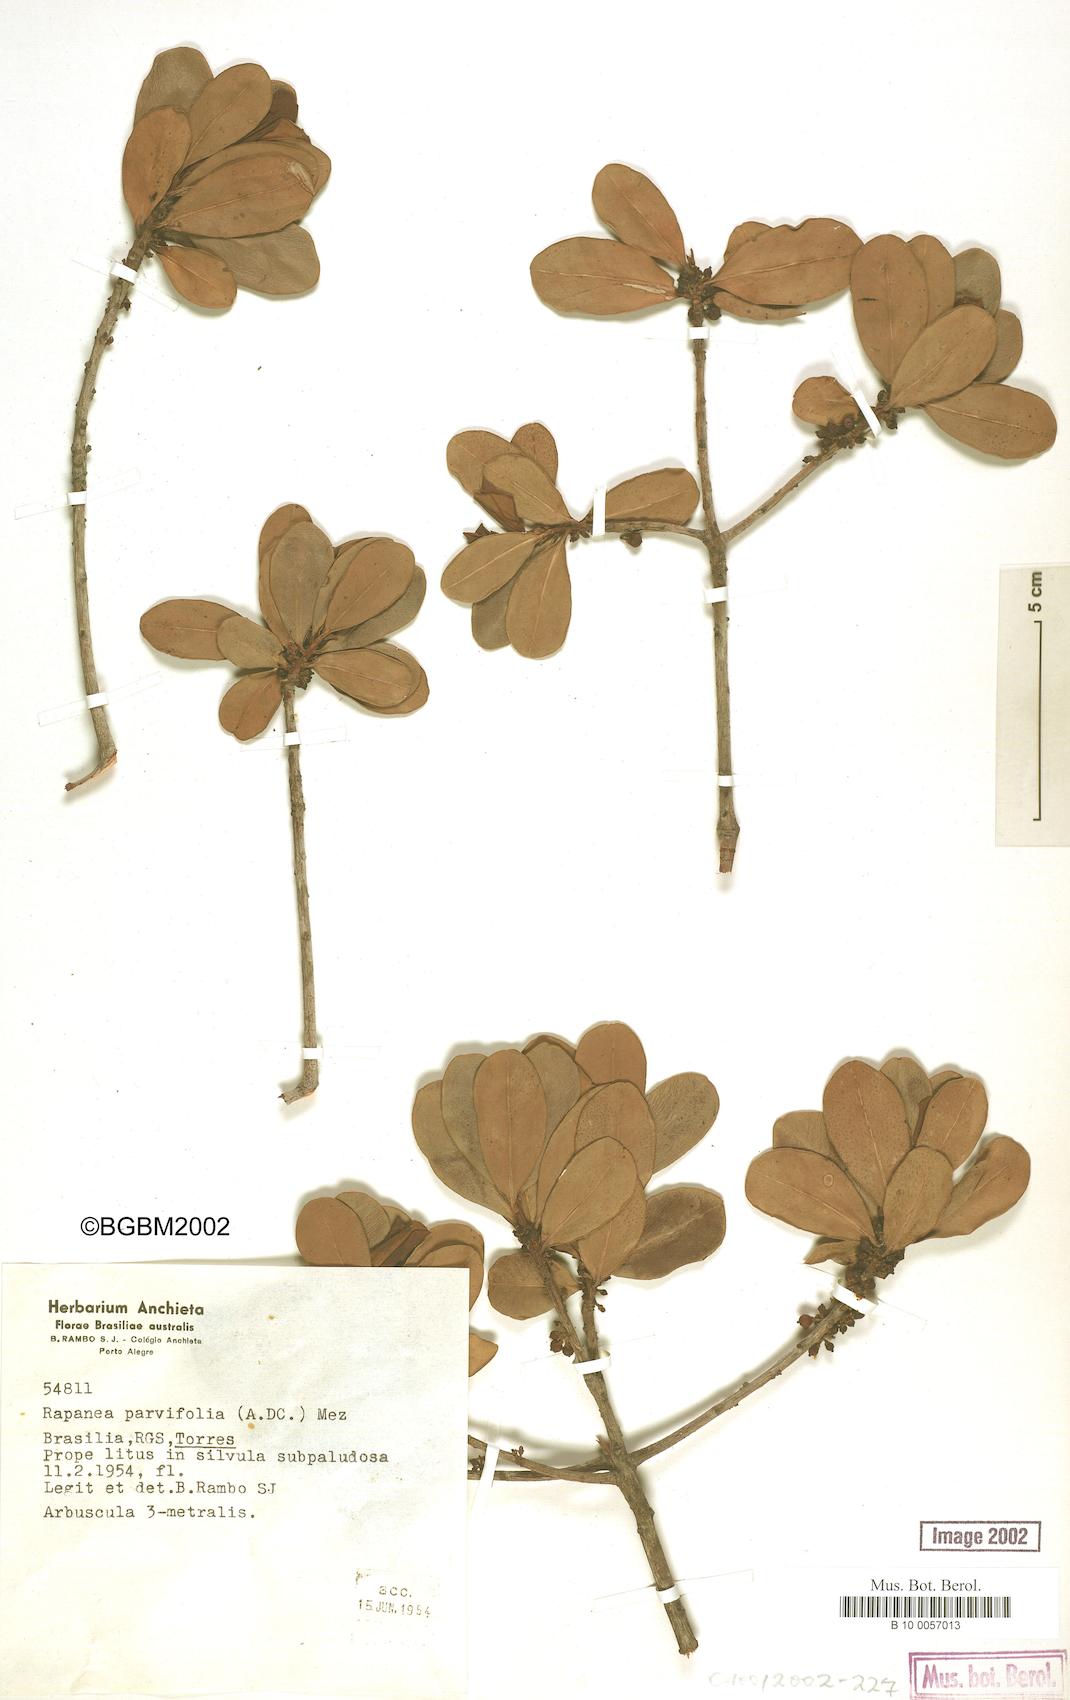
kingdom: Plantae
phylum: Tracheophyta
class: Magnoliopsida
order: Ericales
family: Primulaceae
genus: Myrsine
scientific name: Myrsine parvifolia
